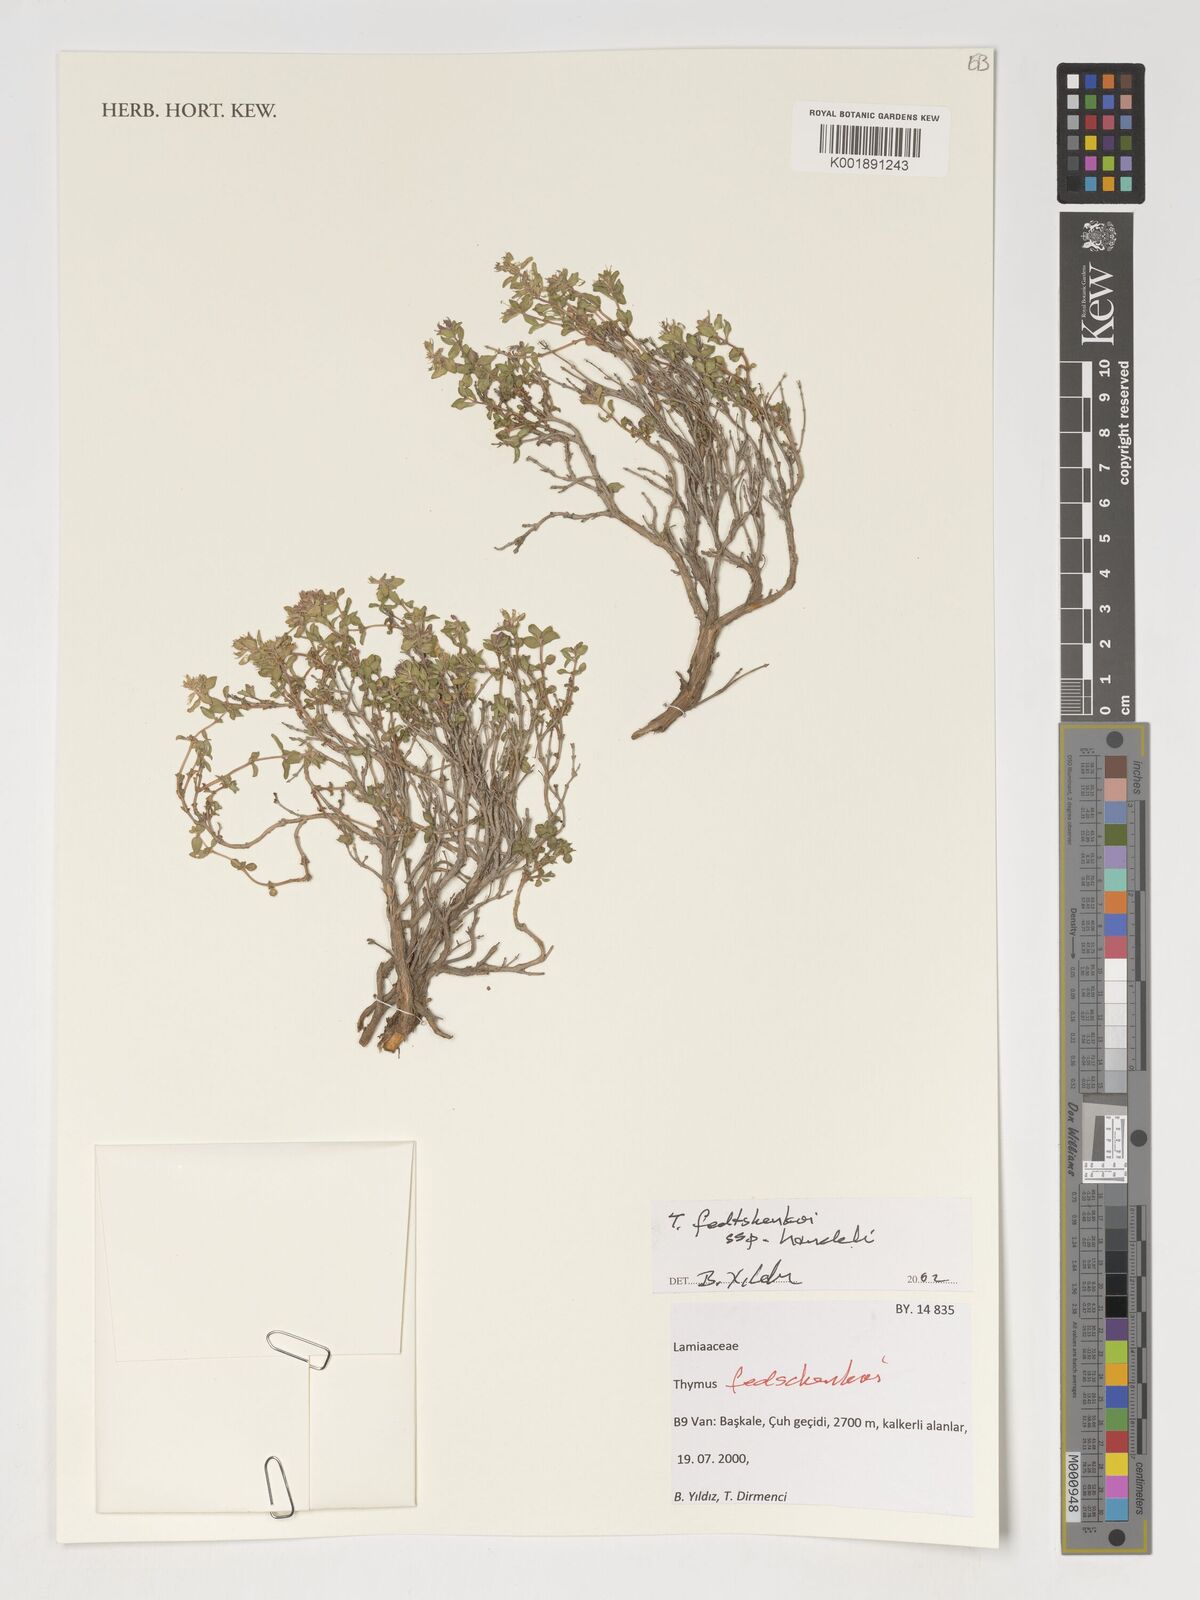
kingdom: Plantae
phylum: Tracheophyta
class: Magnoliopsida
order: Lamiales
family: Lamiaceae
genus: Thymus
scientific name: Thymus fedtschenkoi
